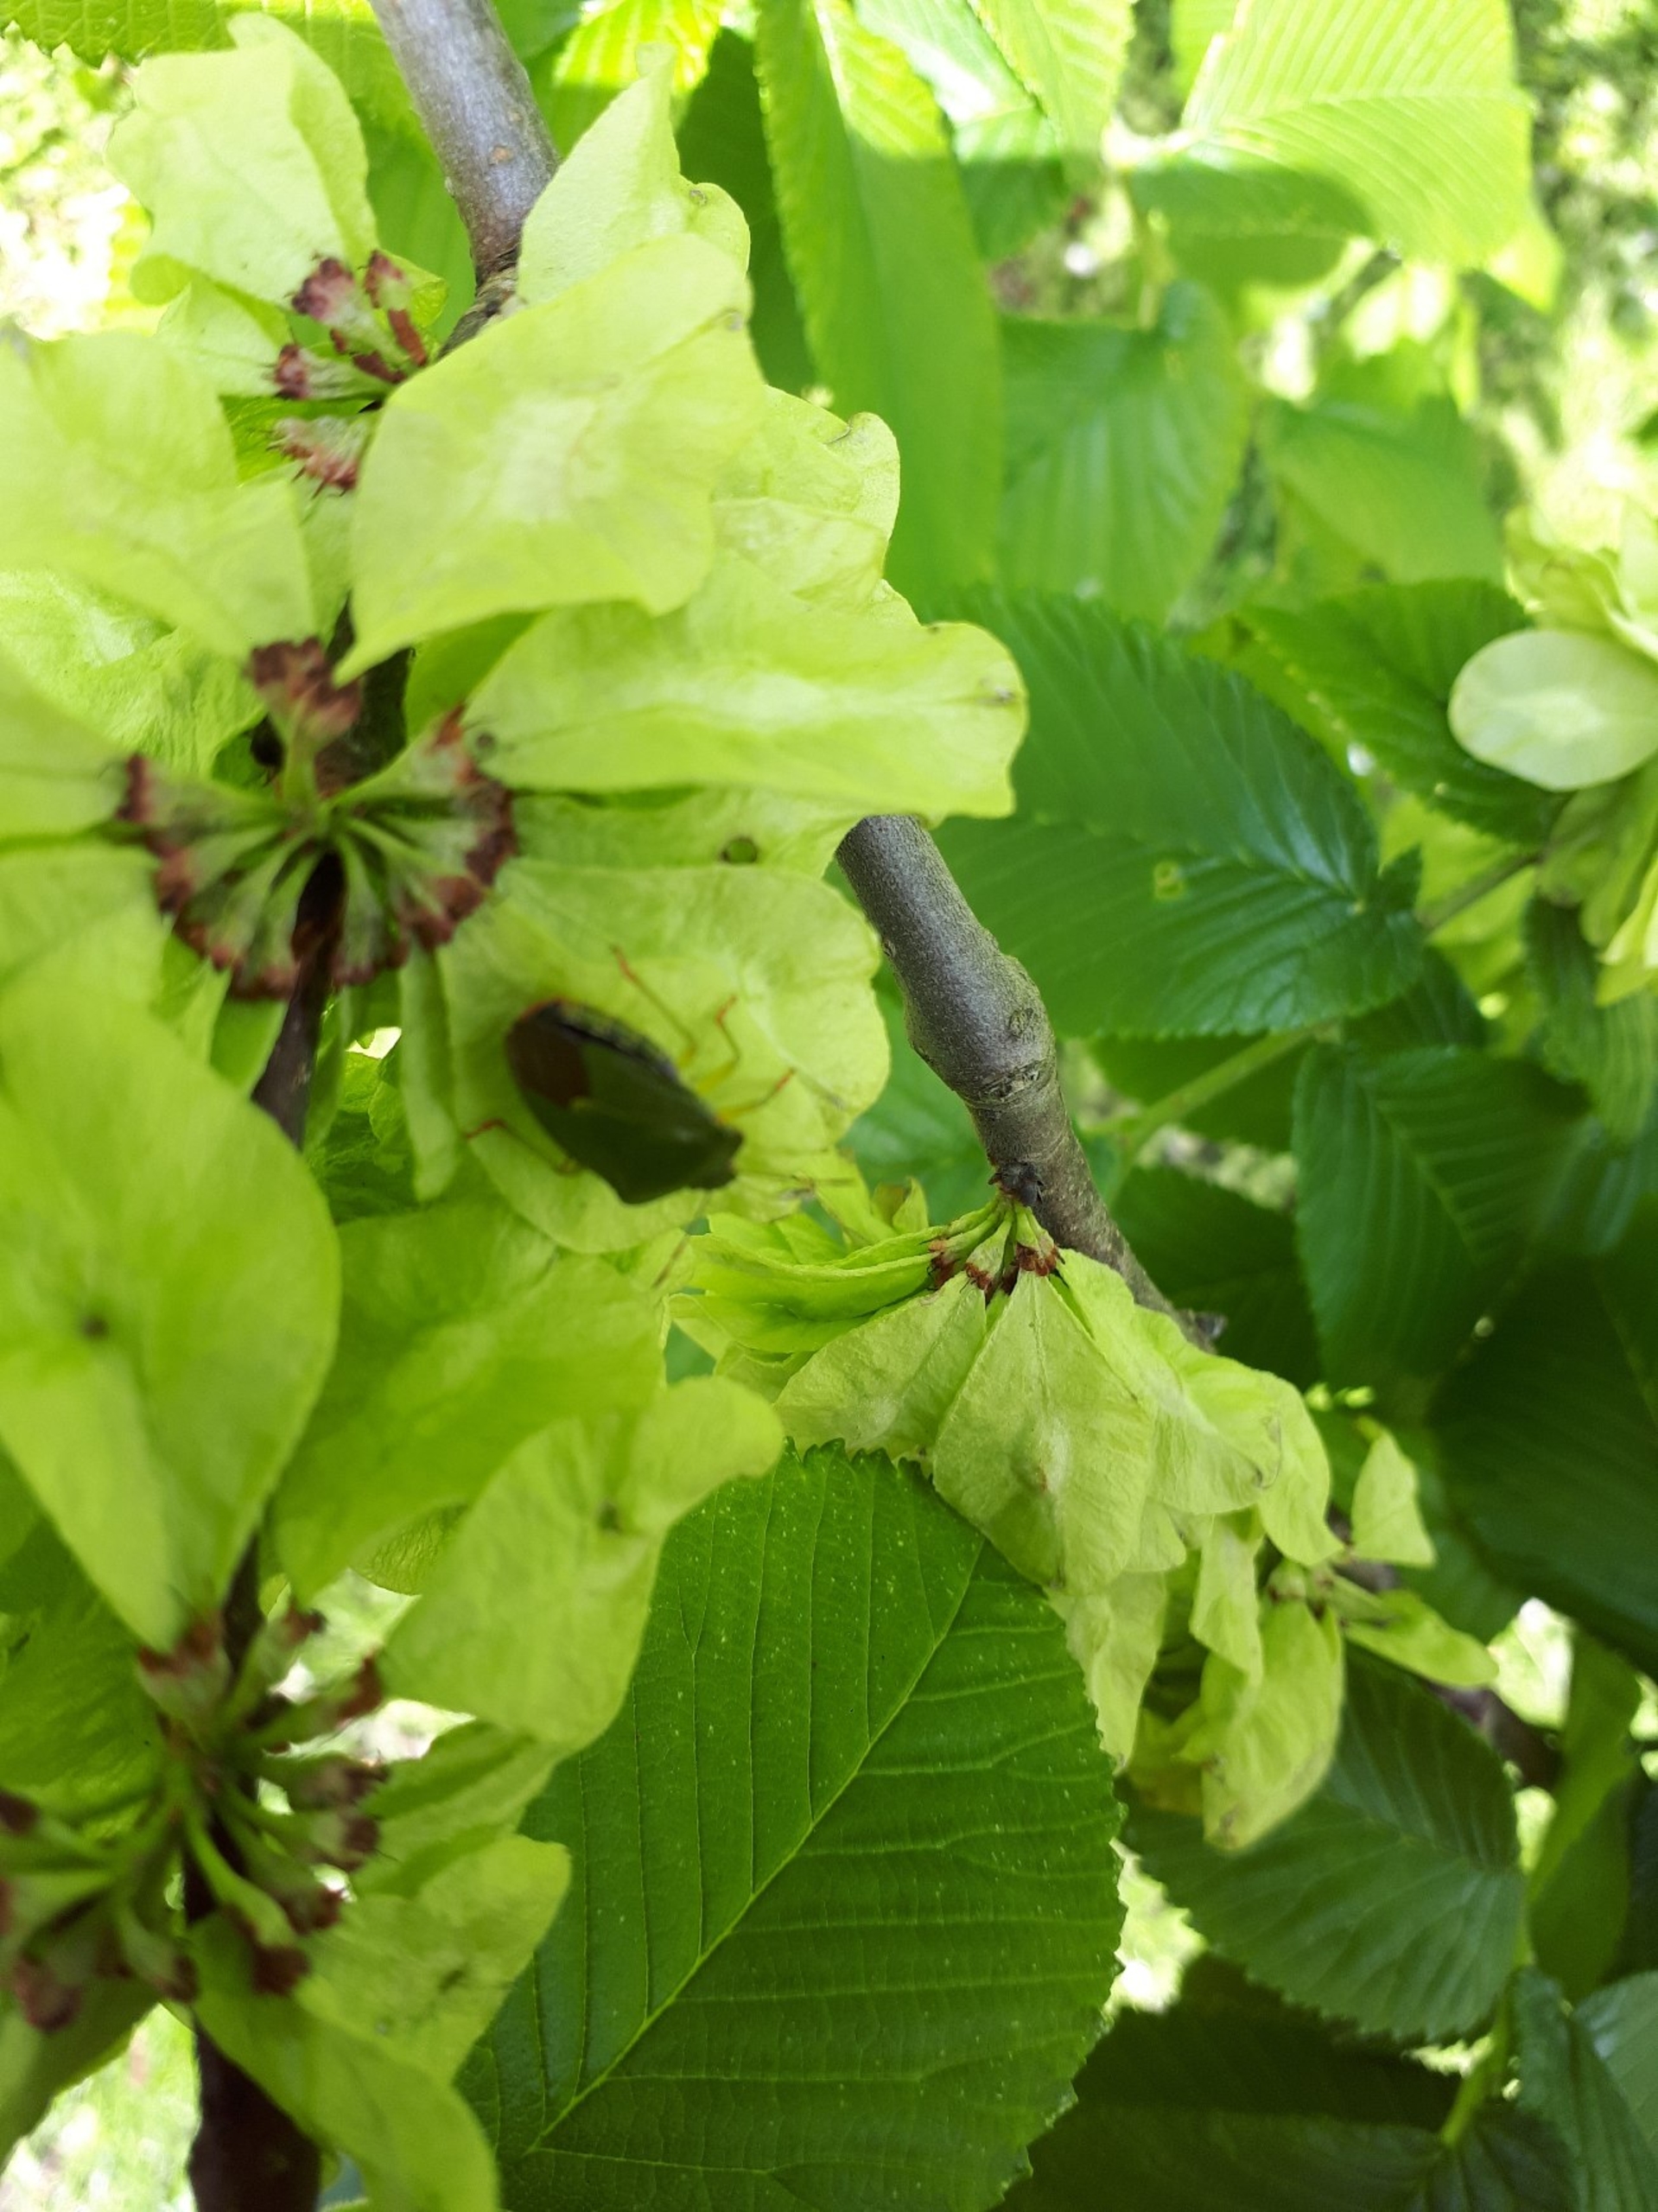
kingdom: Animalia
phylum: Arthropoda
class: Insecta
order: Hemiptera
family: Pentatomidae
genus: Palomena
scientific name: Palomena prasina
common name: Grøn bredtæge
